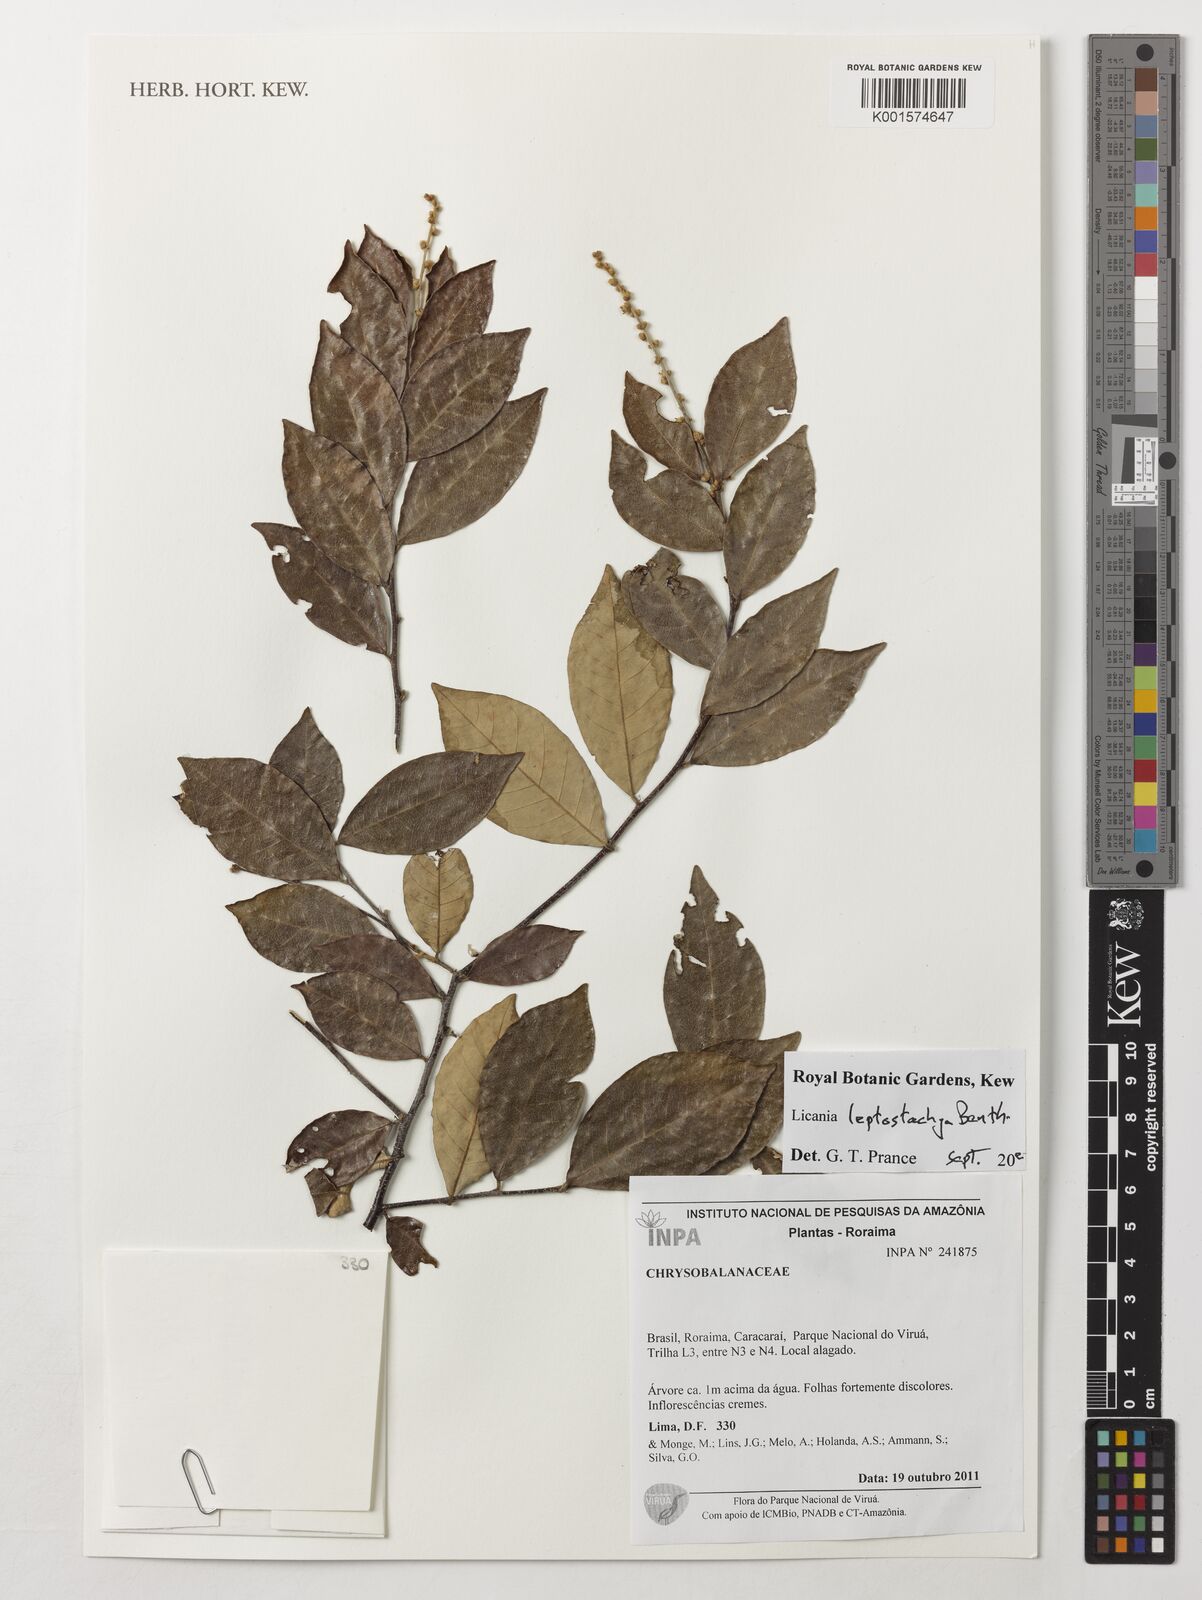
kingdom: Plantae
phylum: Tracheophyta
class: Magnoliopsida
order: Malpighiales
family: Chrysobalanaceae
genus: Licania
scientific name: Licania leptostachya
